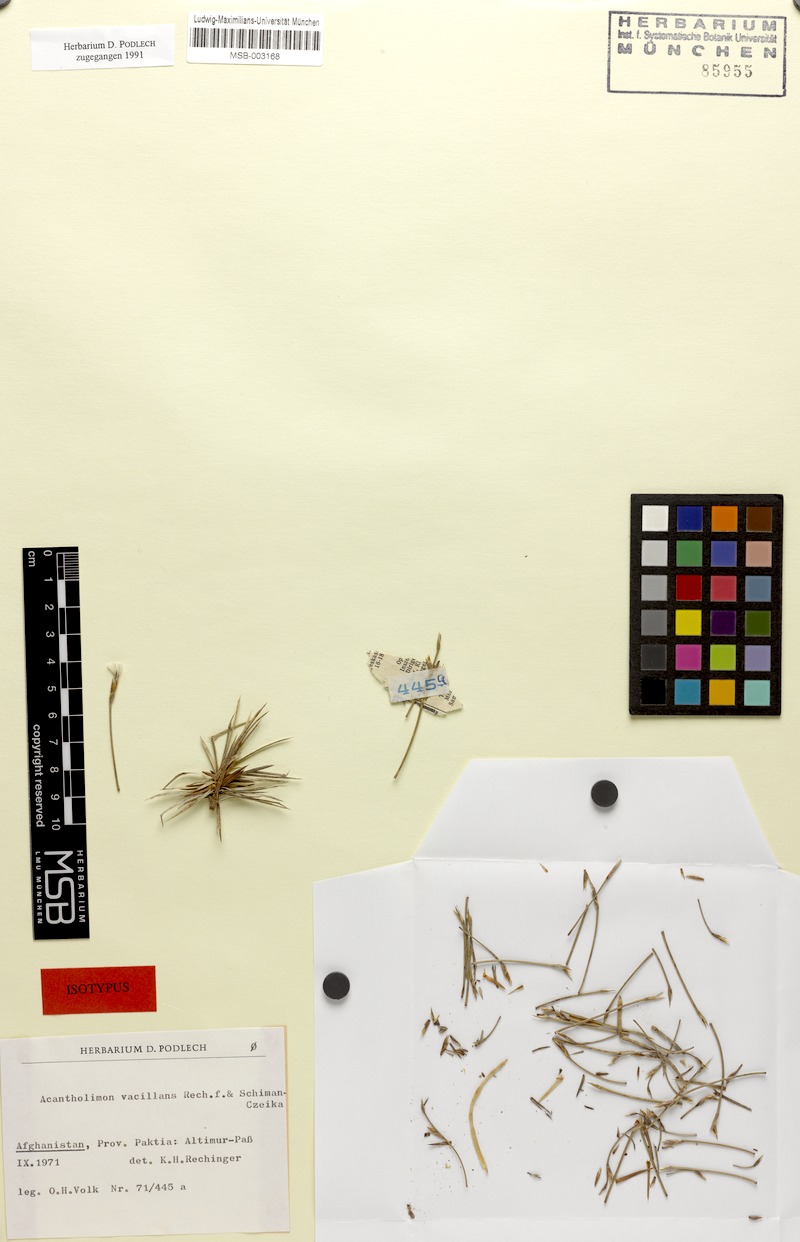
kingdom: Plantae
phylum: Tracheophyta
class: Magnoliopsida
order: Caryophyllales
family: Plumbaginaceae
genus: Acantholimon
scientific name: Acantholimon vacillans
